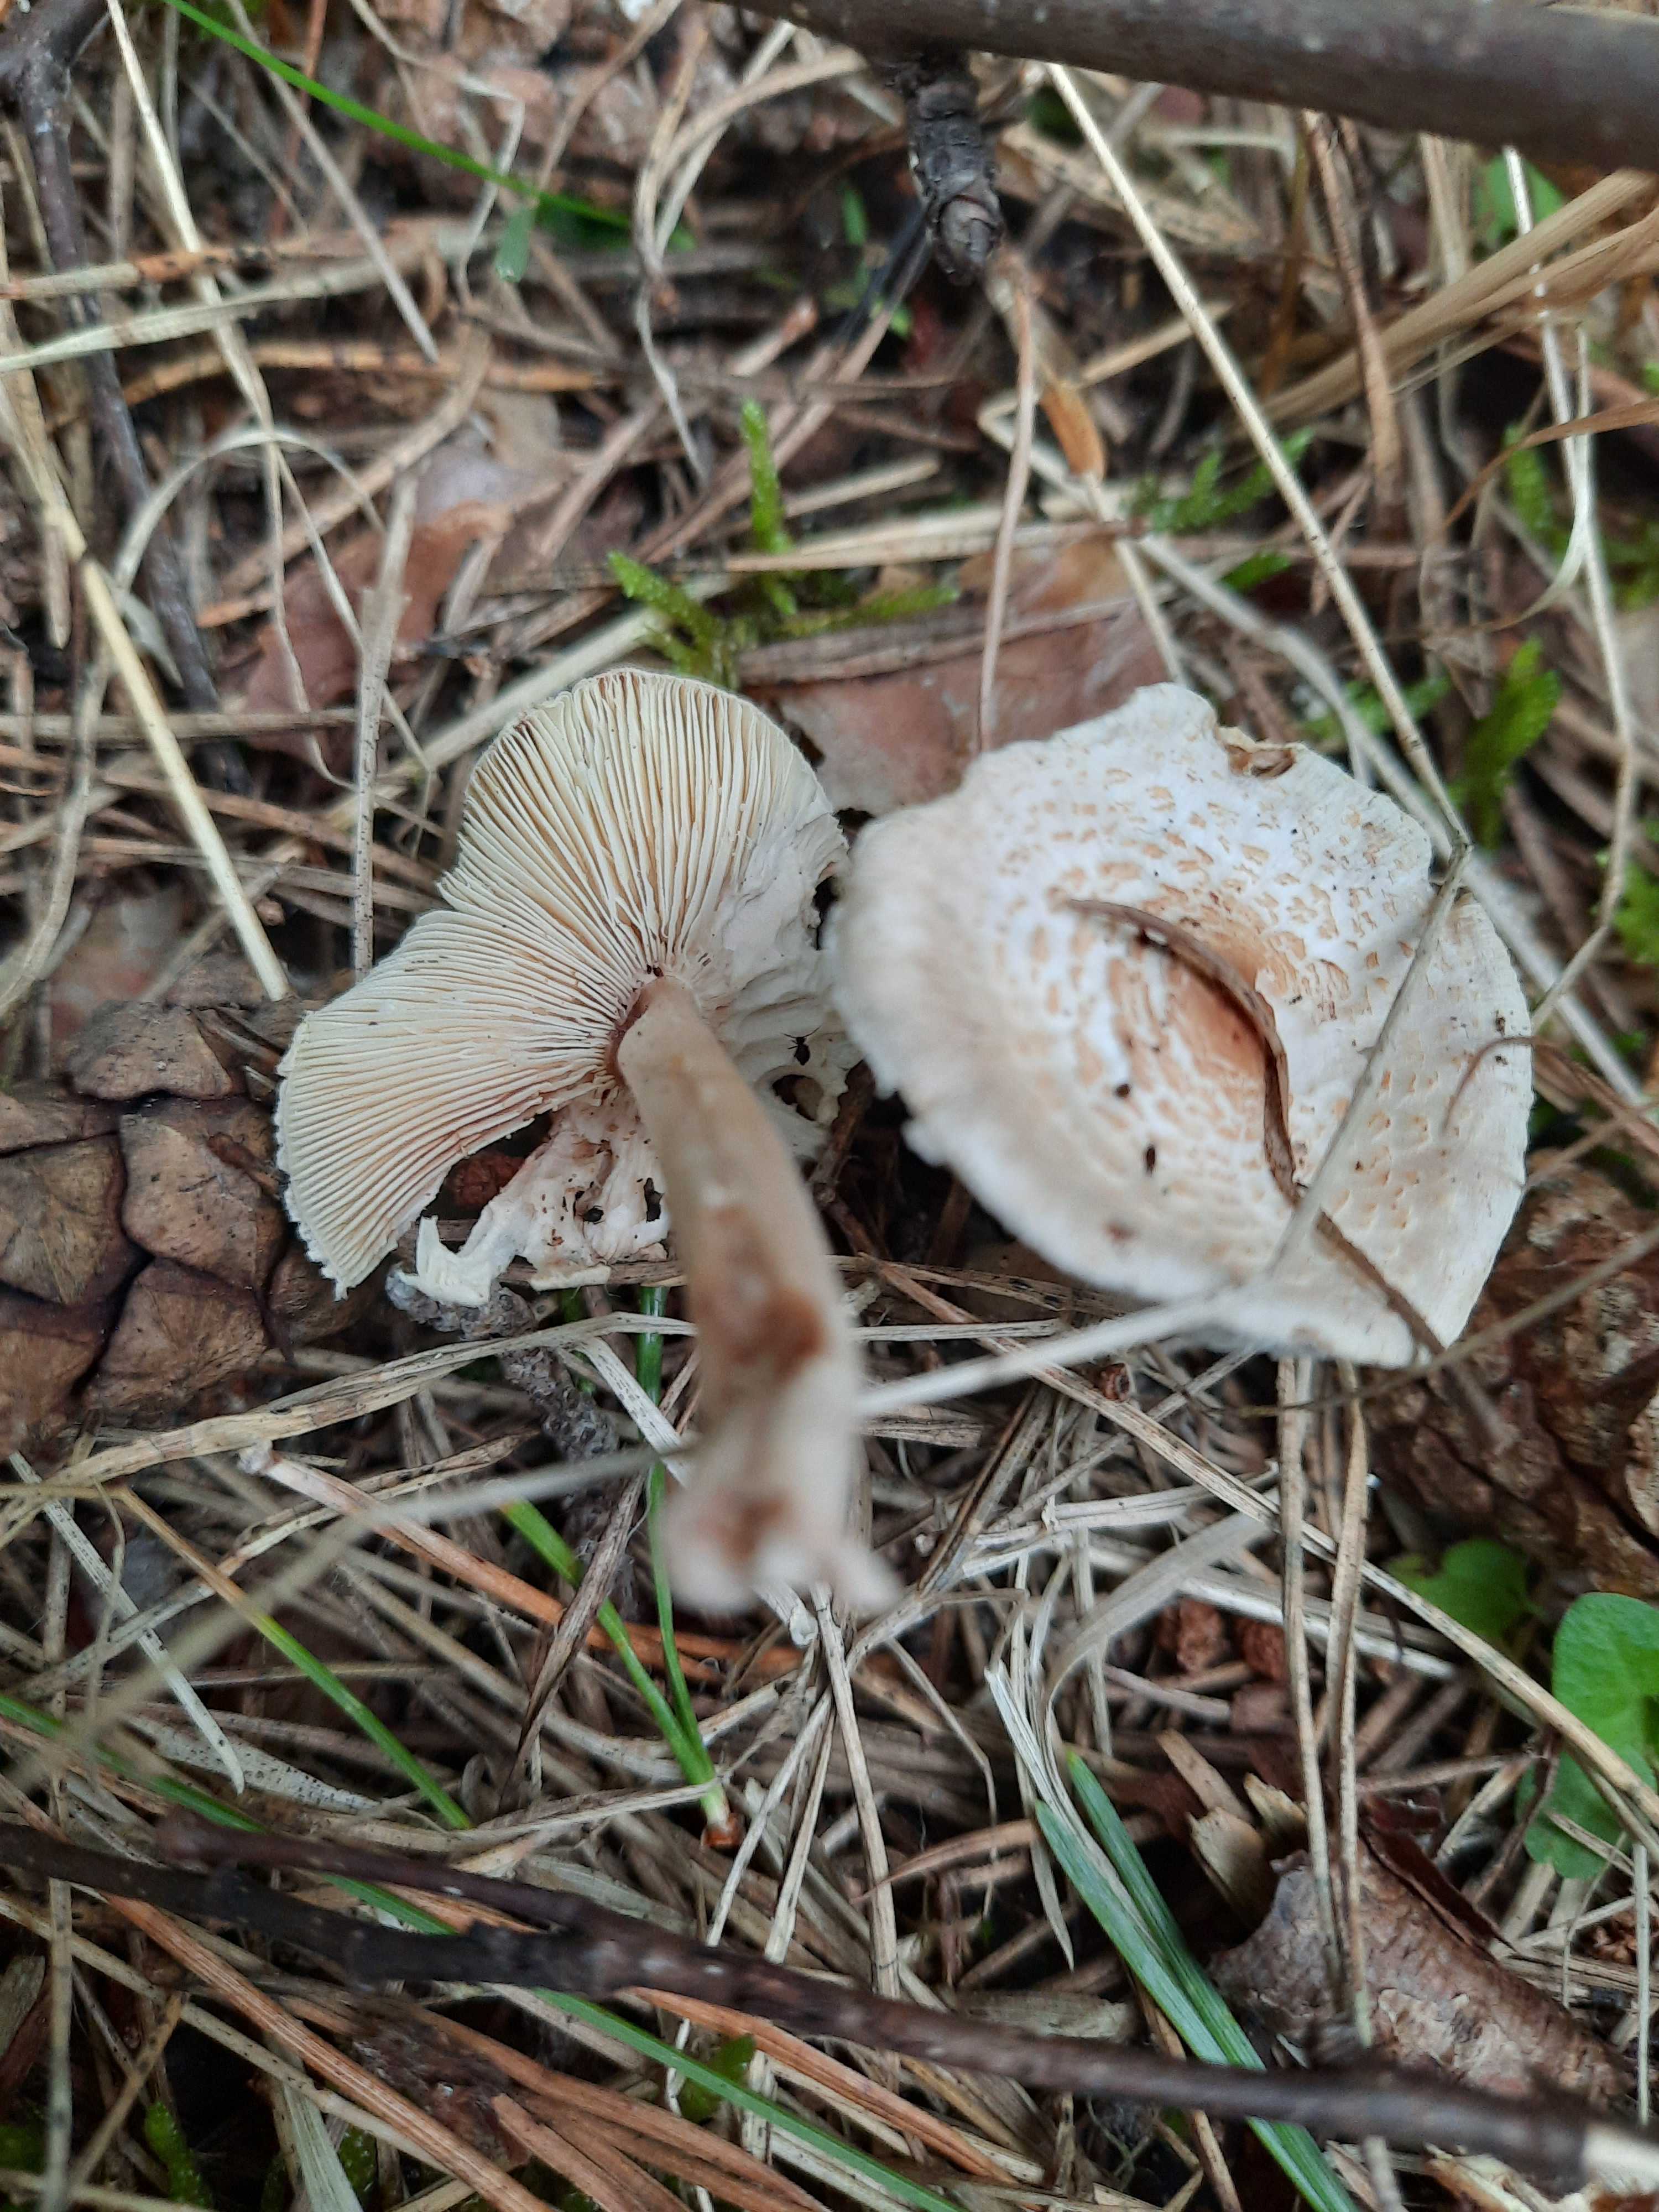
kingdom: Fungi
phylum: Basidiomycota
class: Agaricomycetes
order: Agaricales
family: Agaricaceae
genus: Lepiota
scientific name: Lepiota cristata
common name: stinkende parasolhat
